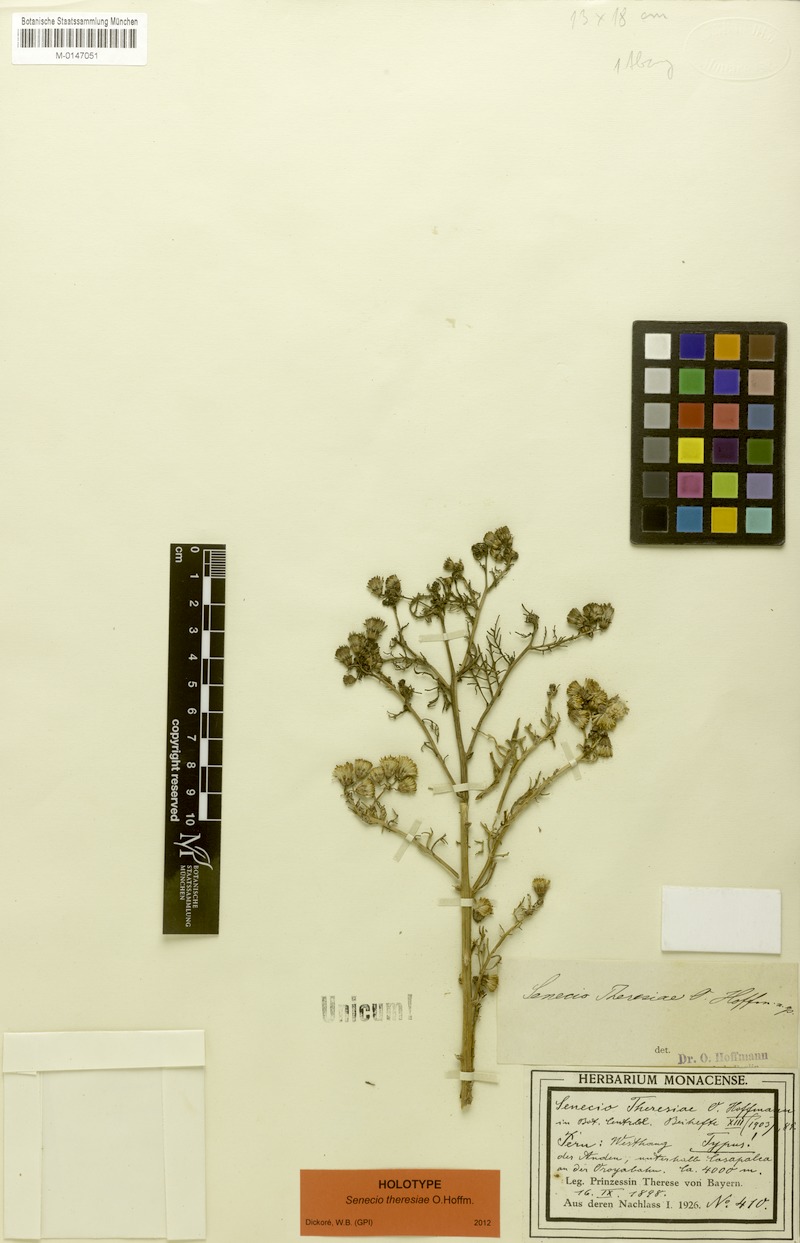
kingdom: Plantae
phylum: Tracheophyta
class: Magnoliopsida
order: Asterales
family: Asteraceae
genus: Senecio
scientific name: Senecio theresiae
